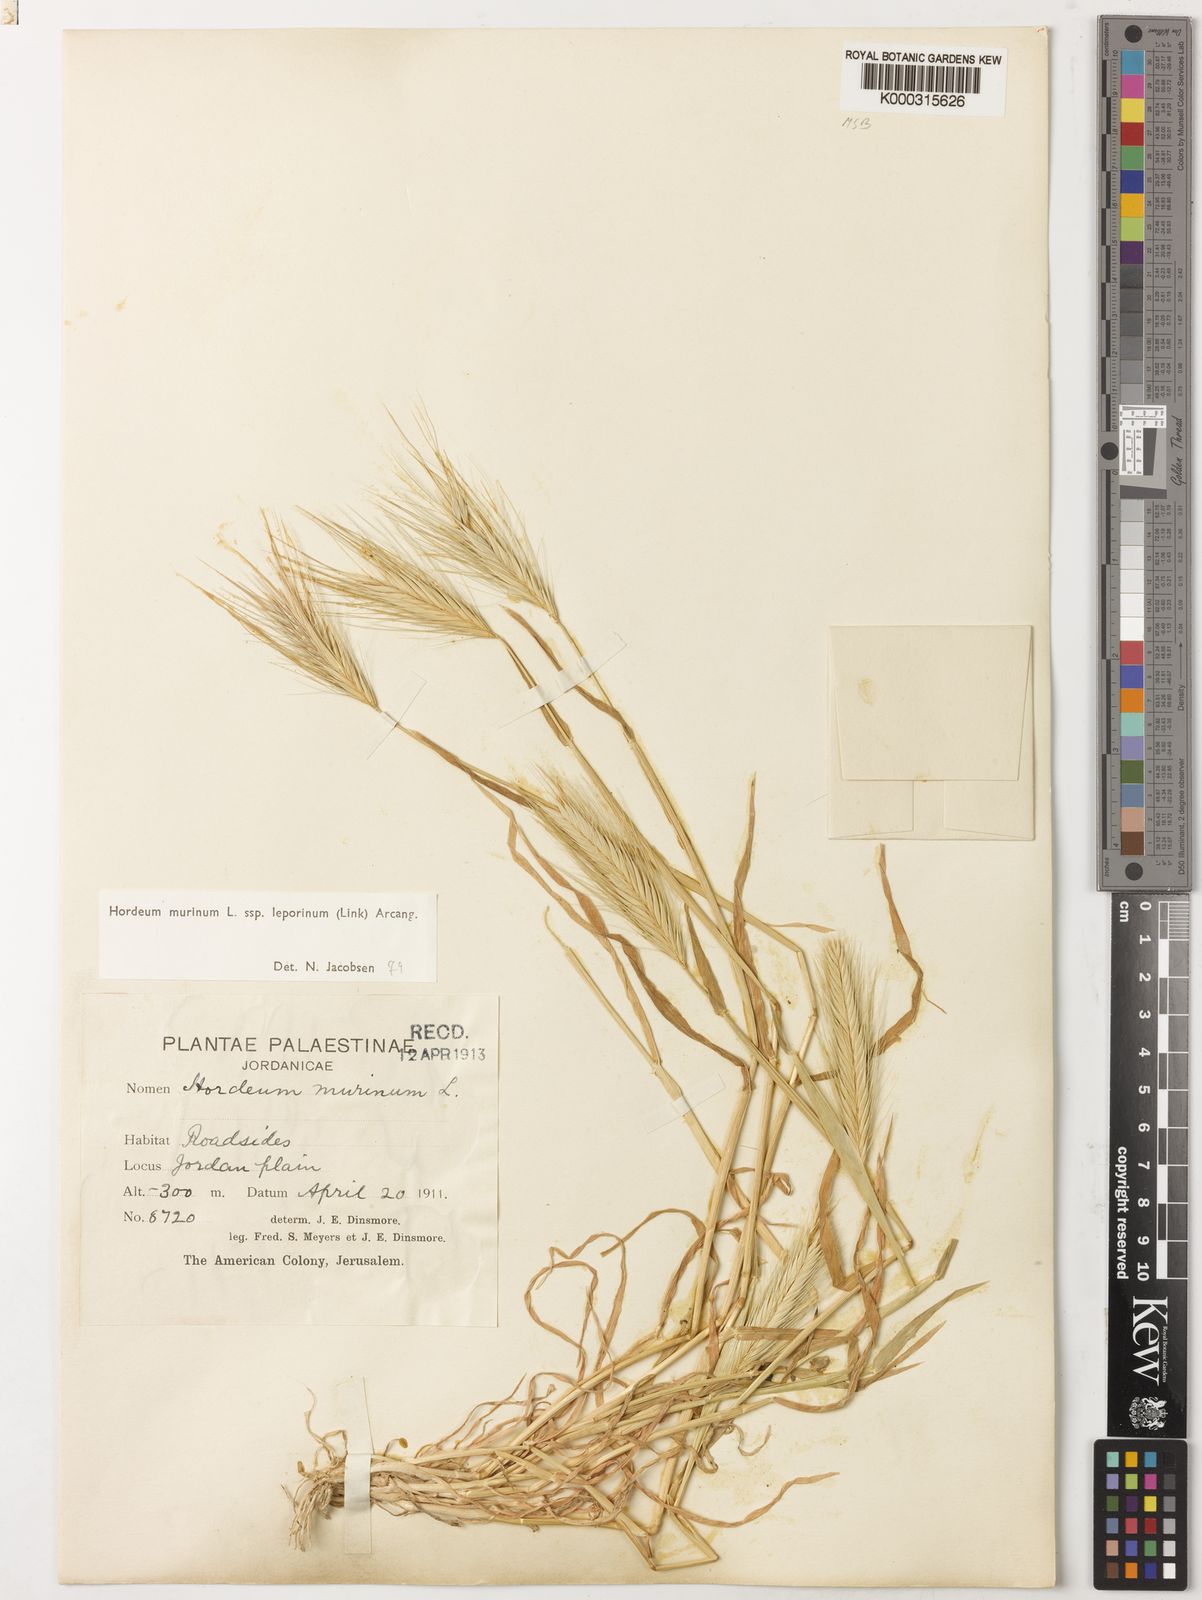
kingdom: Plantae
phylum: Tracheophyta
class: Liliopsida
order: Poales
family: Poaceae
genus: Hordeum
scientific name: Hordeum murinum
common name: Wall barley
